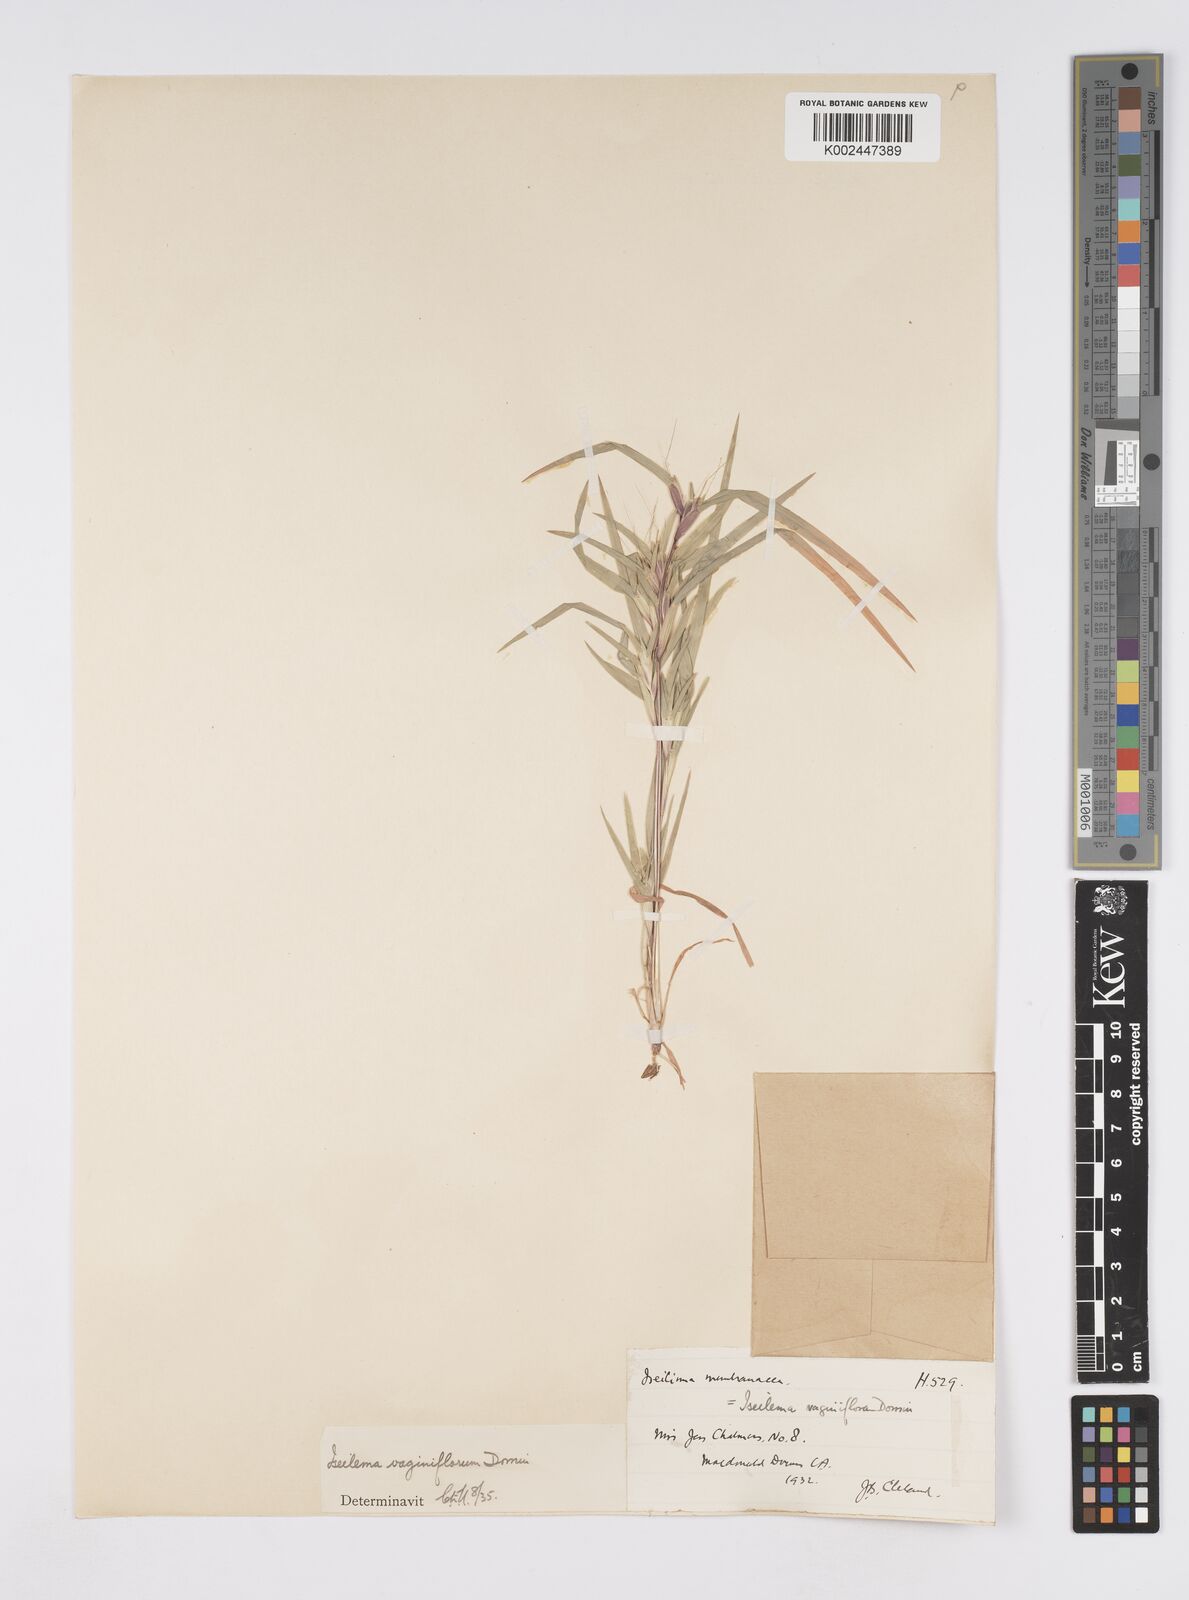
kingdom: Plantae
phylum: Tracheophyta
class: Liliopsida
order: Poales
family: Poaceae
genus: Iseilema
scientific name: Iseilema vaginiflorum
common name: Red flinders grass
